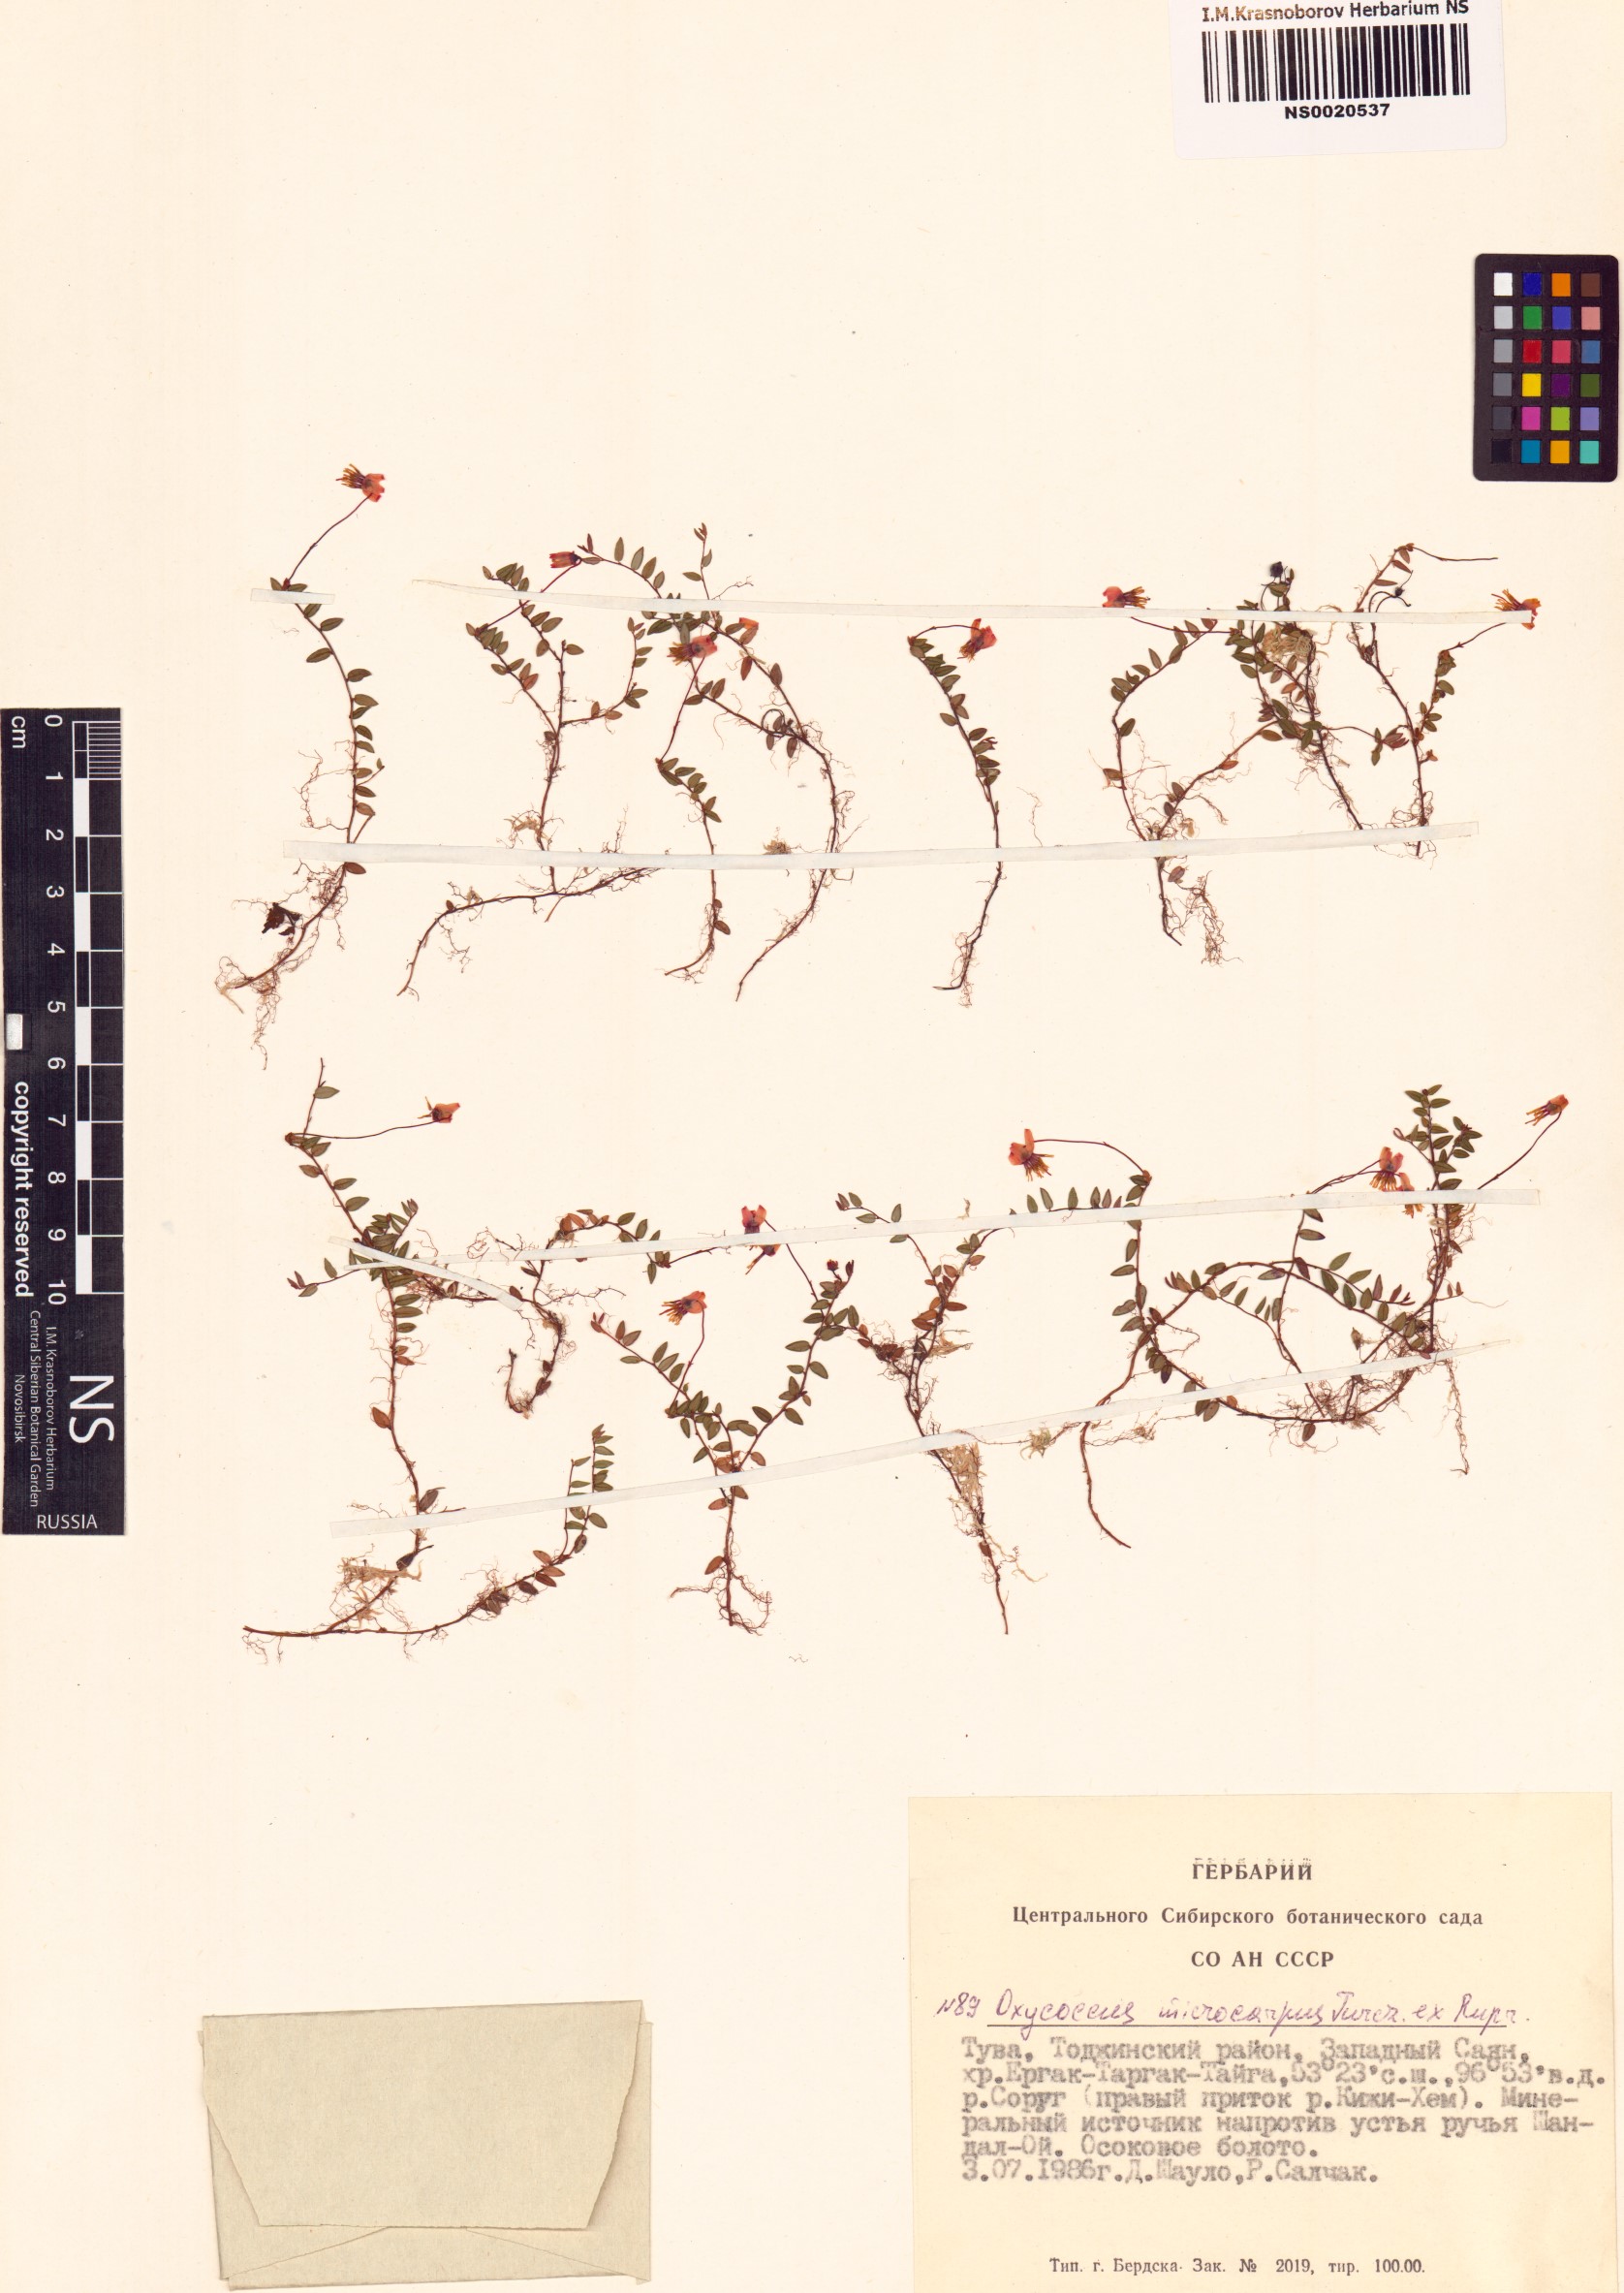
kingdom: Plantae
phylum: Tracheophyta
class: Magnoliopsida
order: Ericales
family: Ericaceae
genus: Vaccinium
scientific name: Vaccinium microcarpum
